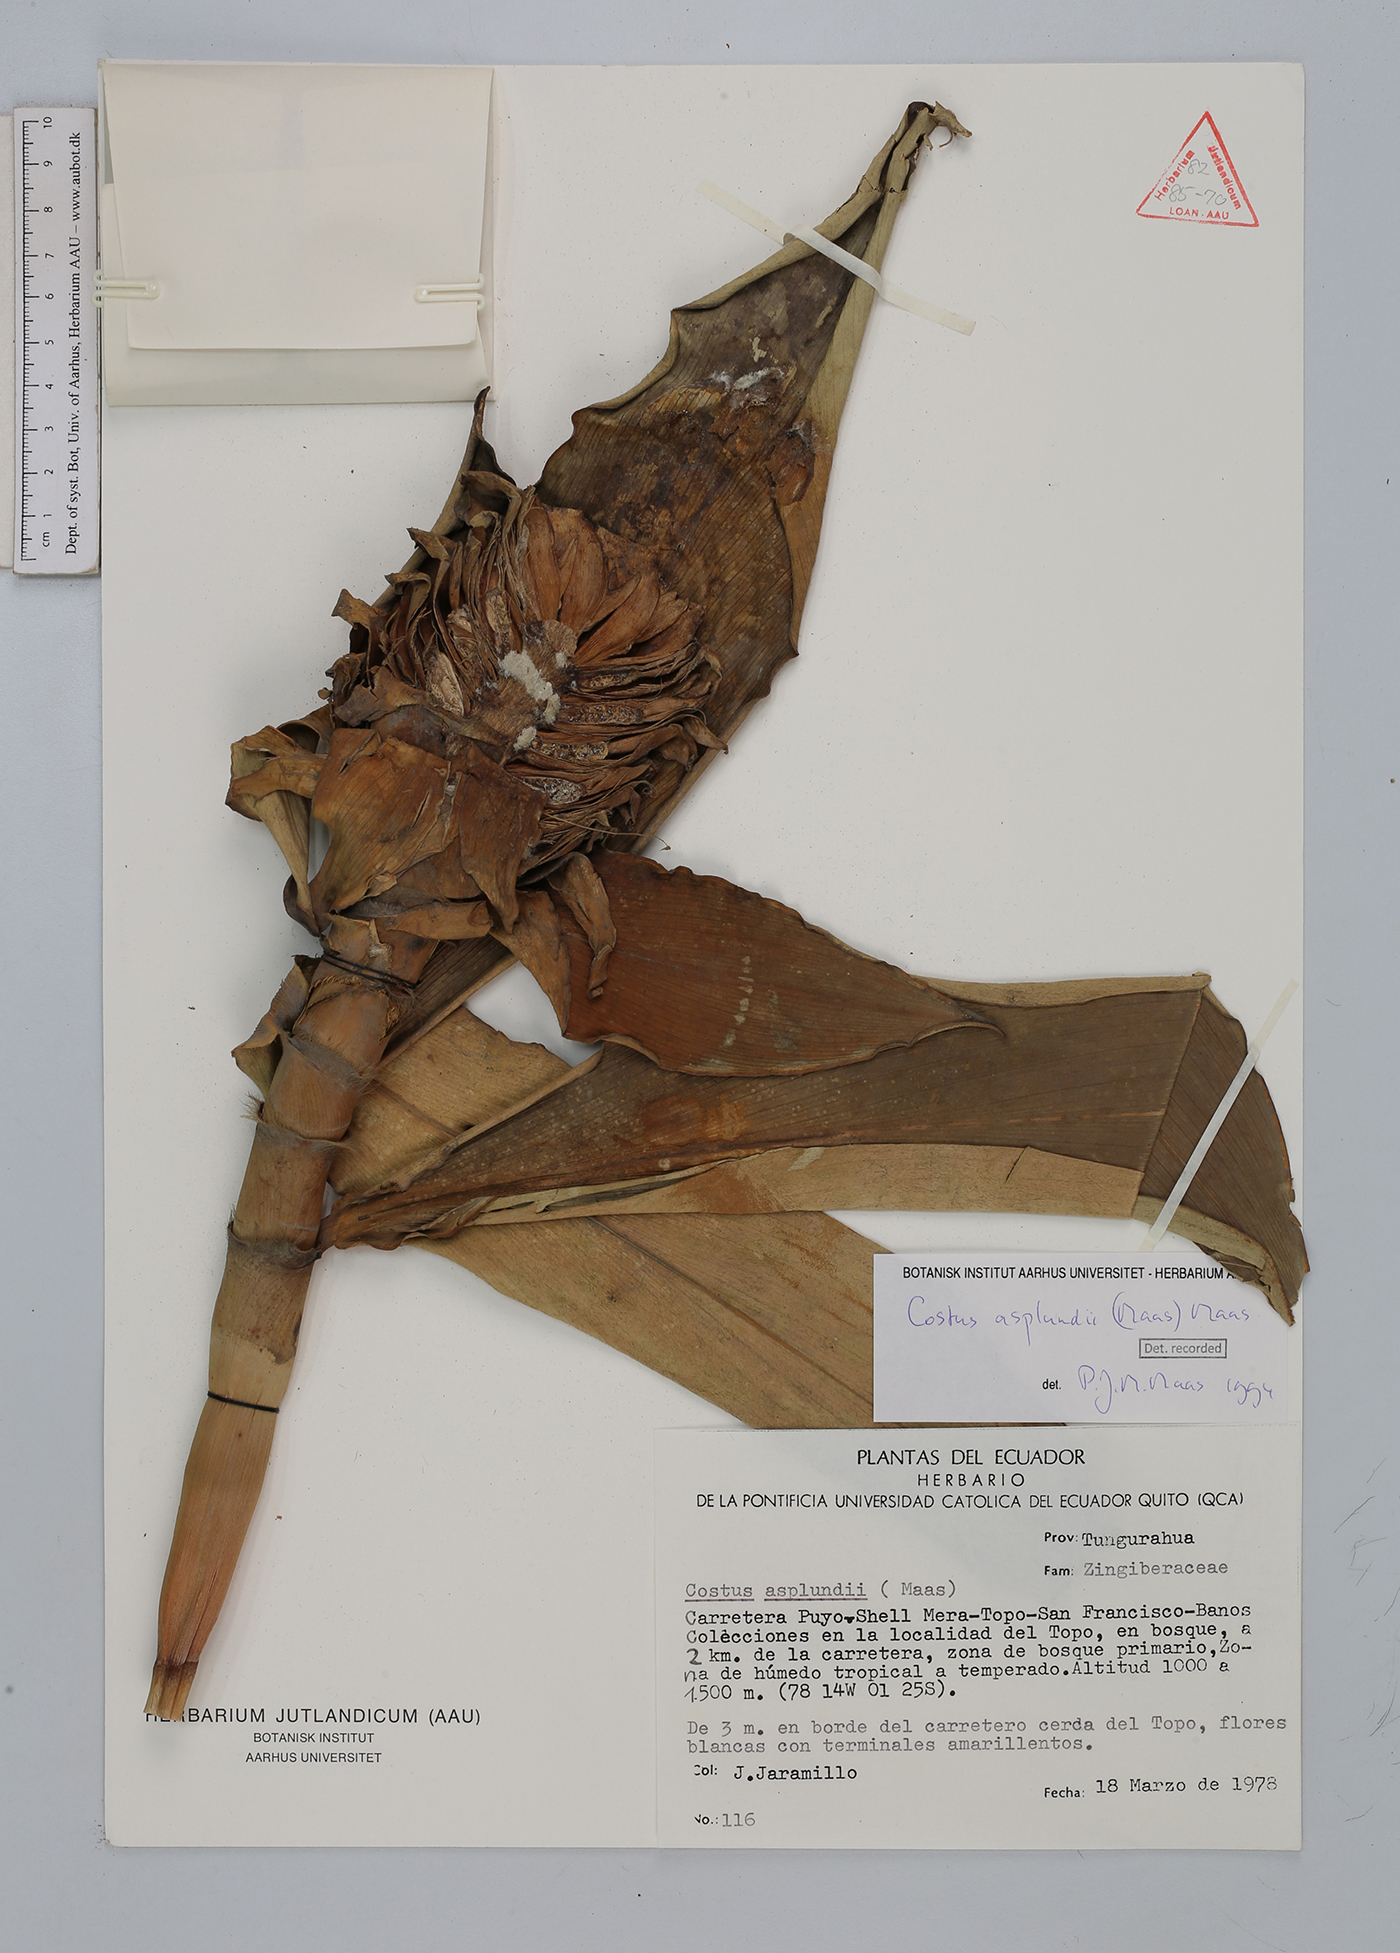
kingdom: Plantae
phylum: Tracheophyta
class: Liliopsida
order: Zingiberales
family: Costaceae
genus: Costus
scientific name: Costus asplundii
